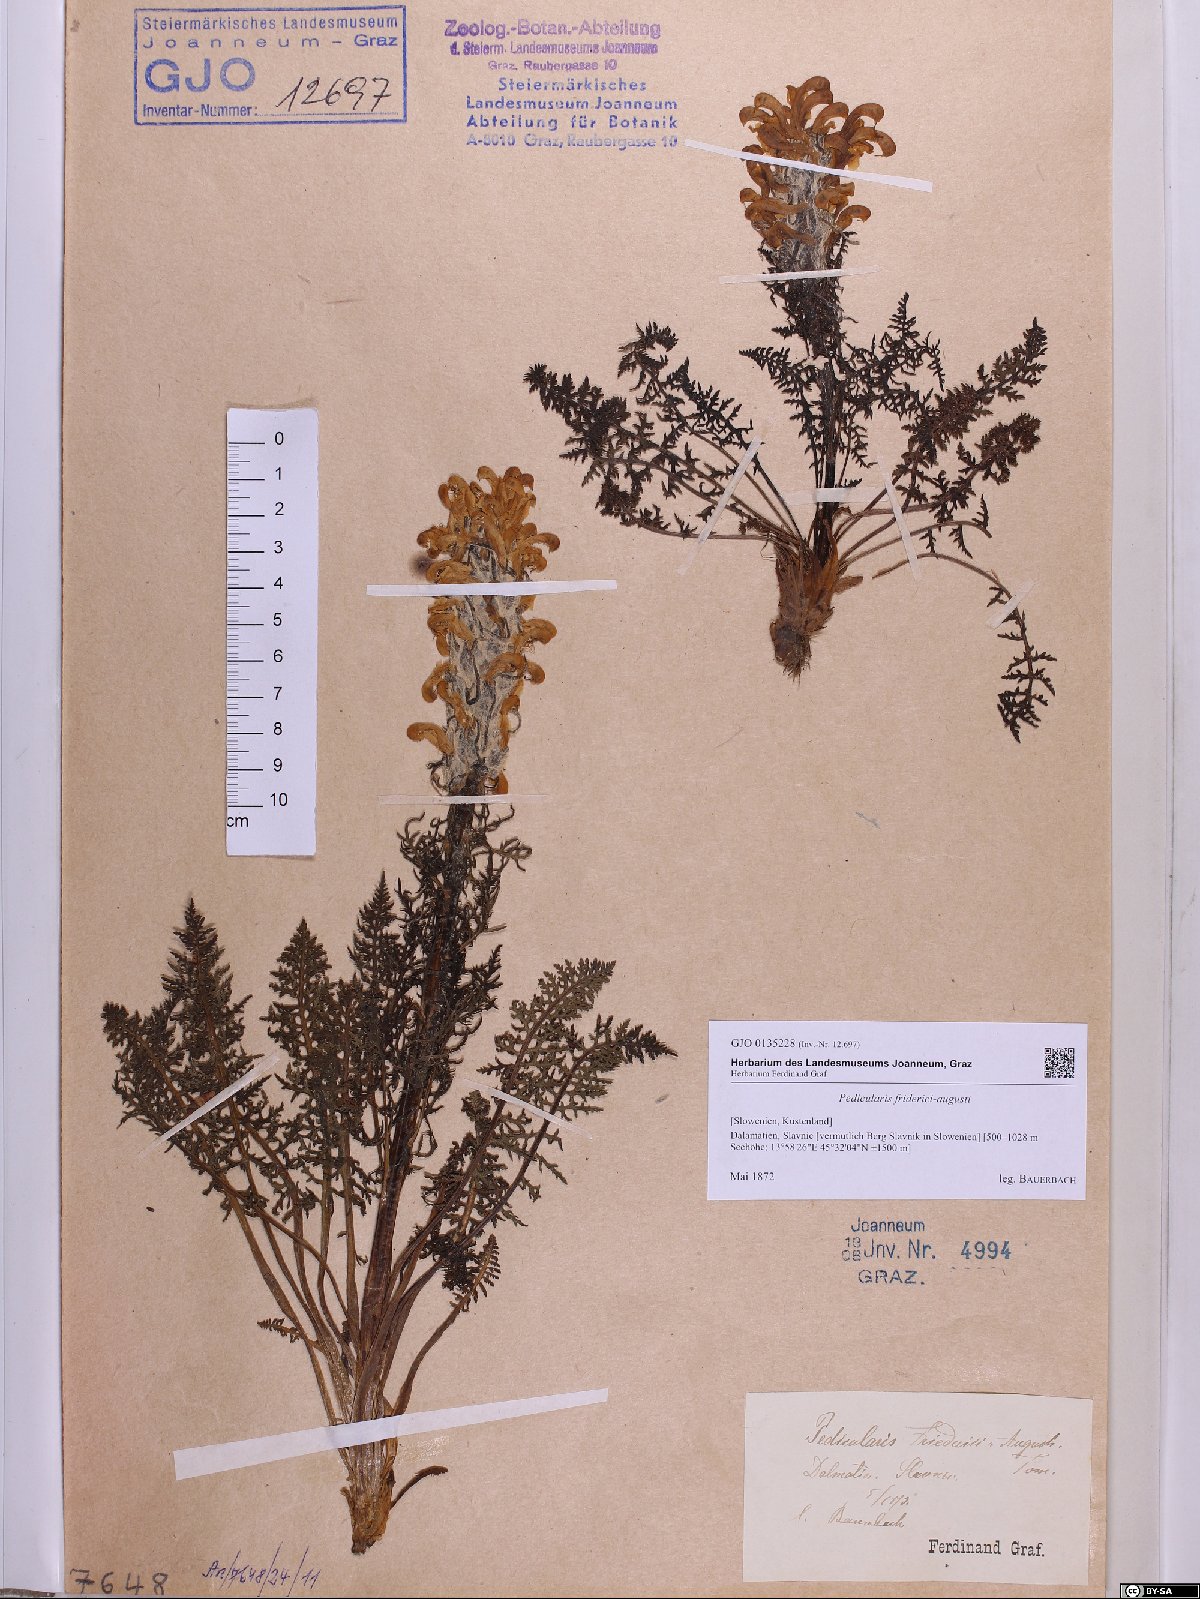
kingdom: Plantae
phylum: Tracheophyta
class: Magnoliopsida
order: Lamiales
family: Orobanchaceae
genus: Pedicularis
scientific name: Pedicularis friderici-augusti
